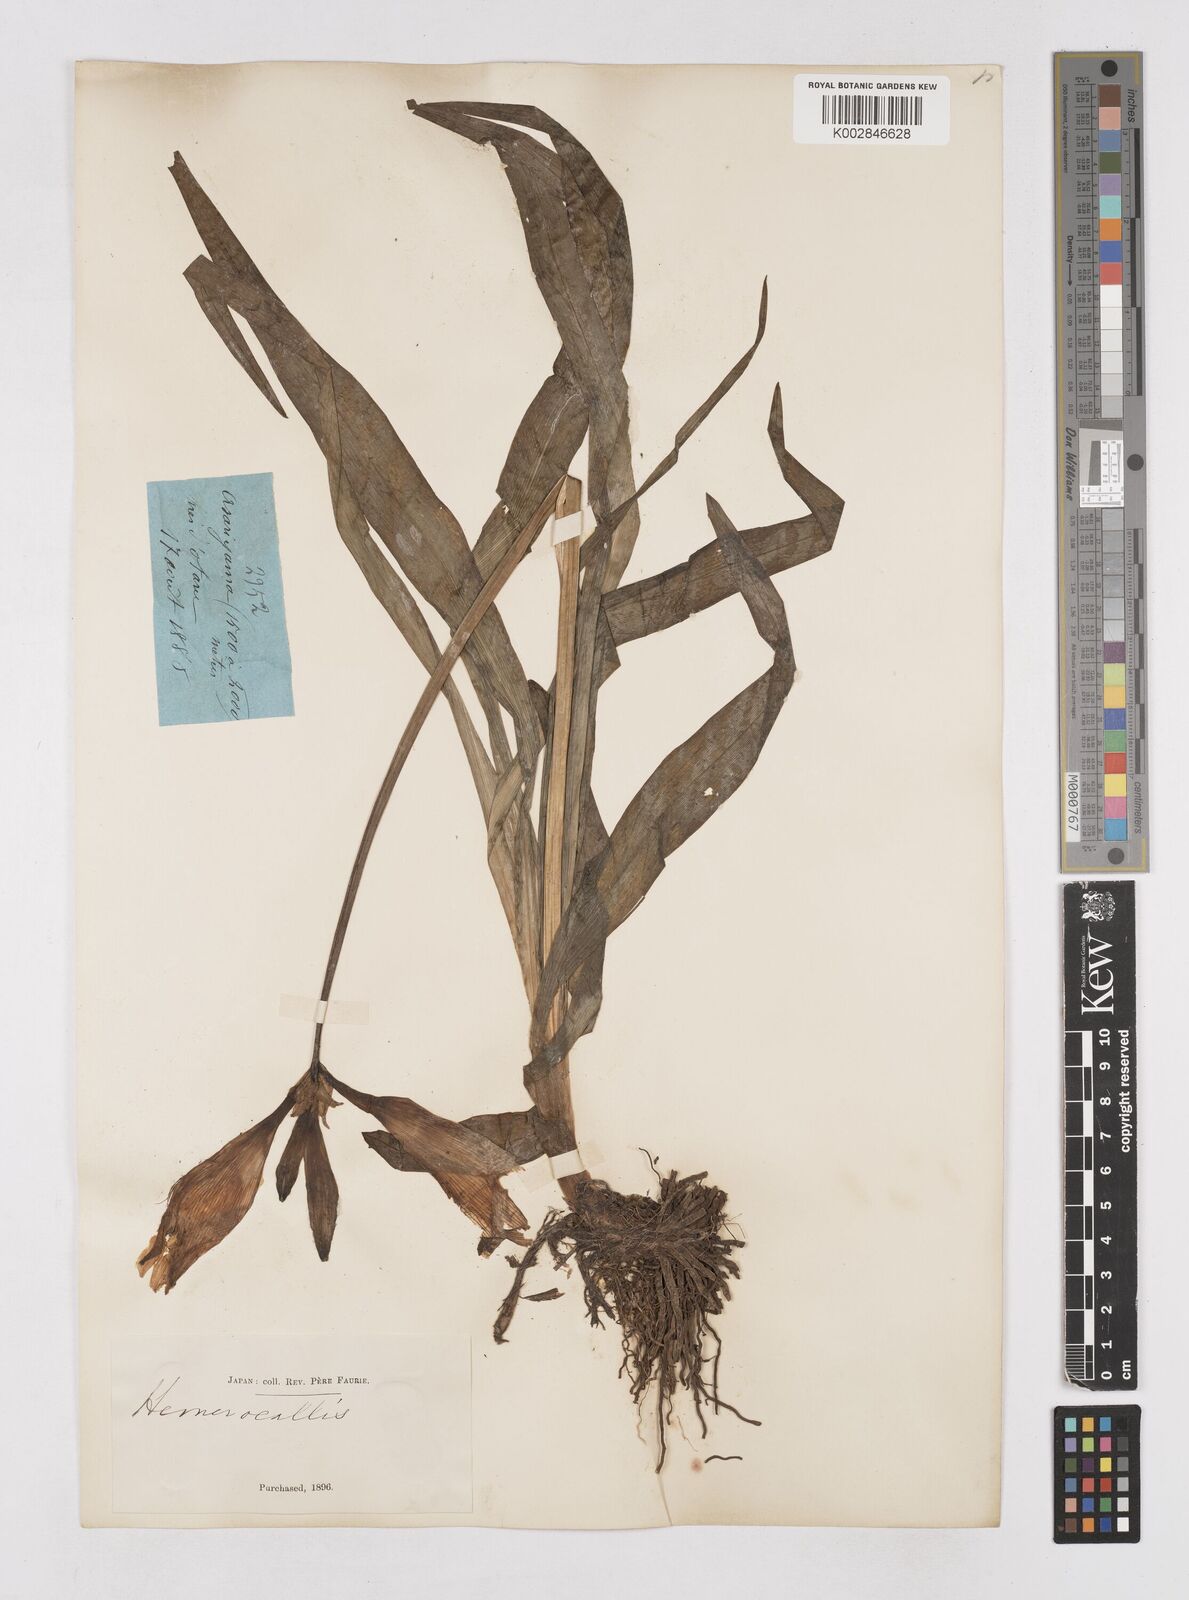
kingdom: Plantae
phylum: Tracheophyta
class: Liliopsida
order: Asparagales
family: Asphodelaceae
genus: Hemerocallis
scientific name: Hemerocallis middendorffii
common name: Amur day-lily
